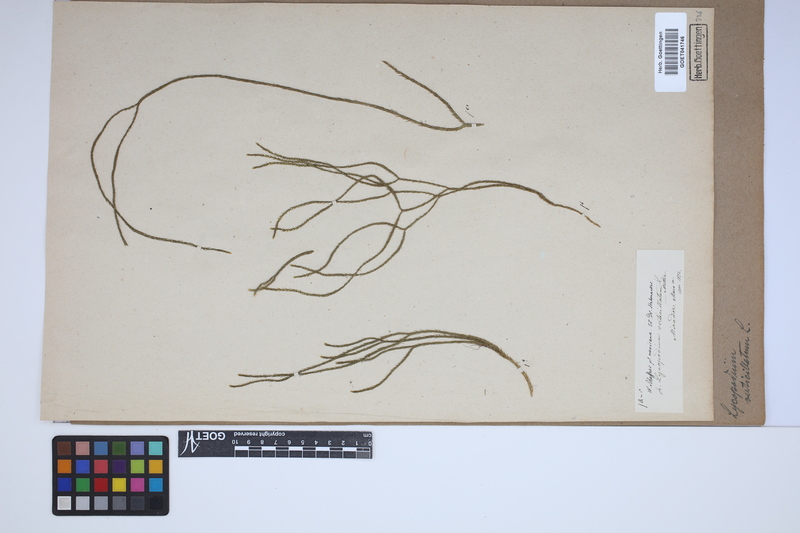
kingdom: Plantae
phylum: Tracheophyta
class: Lycopodiopsida
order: Lycopodiales
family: Lycopodiaceae
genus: Phlegmariurus
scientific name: Phlegmariurus verticillatus
